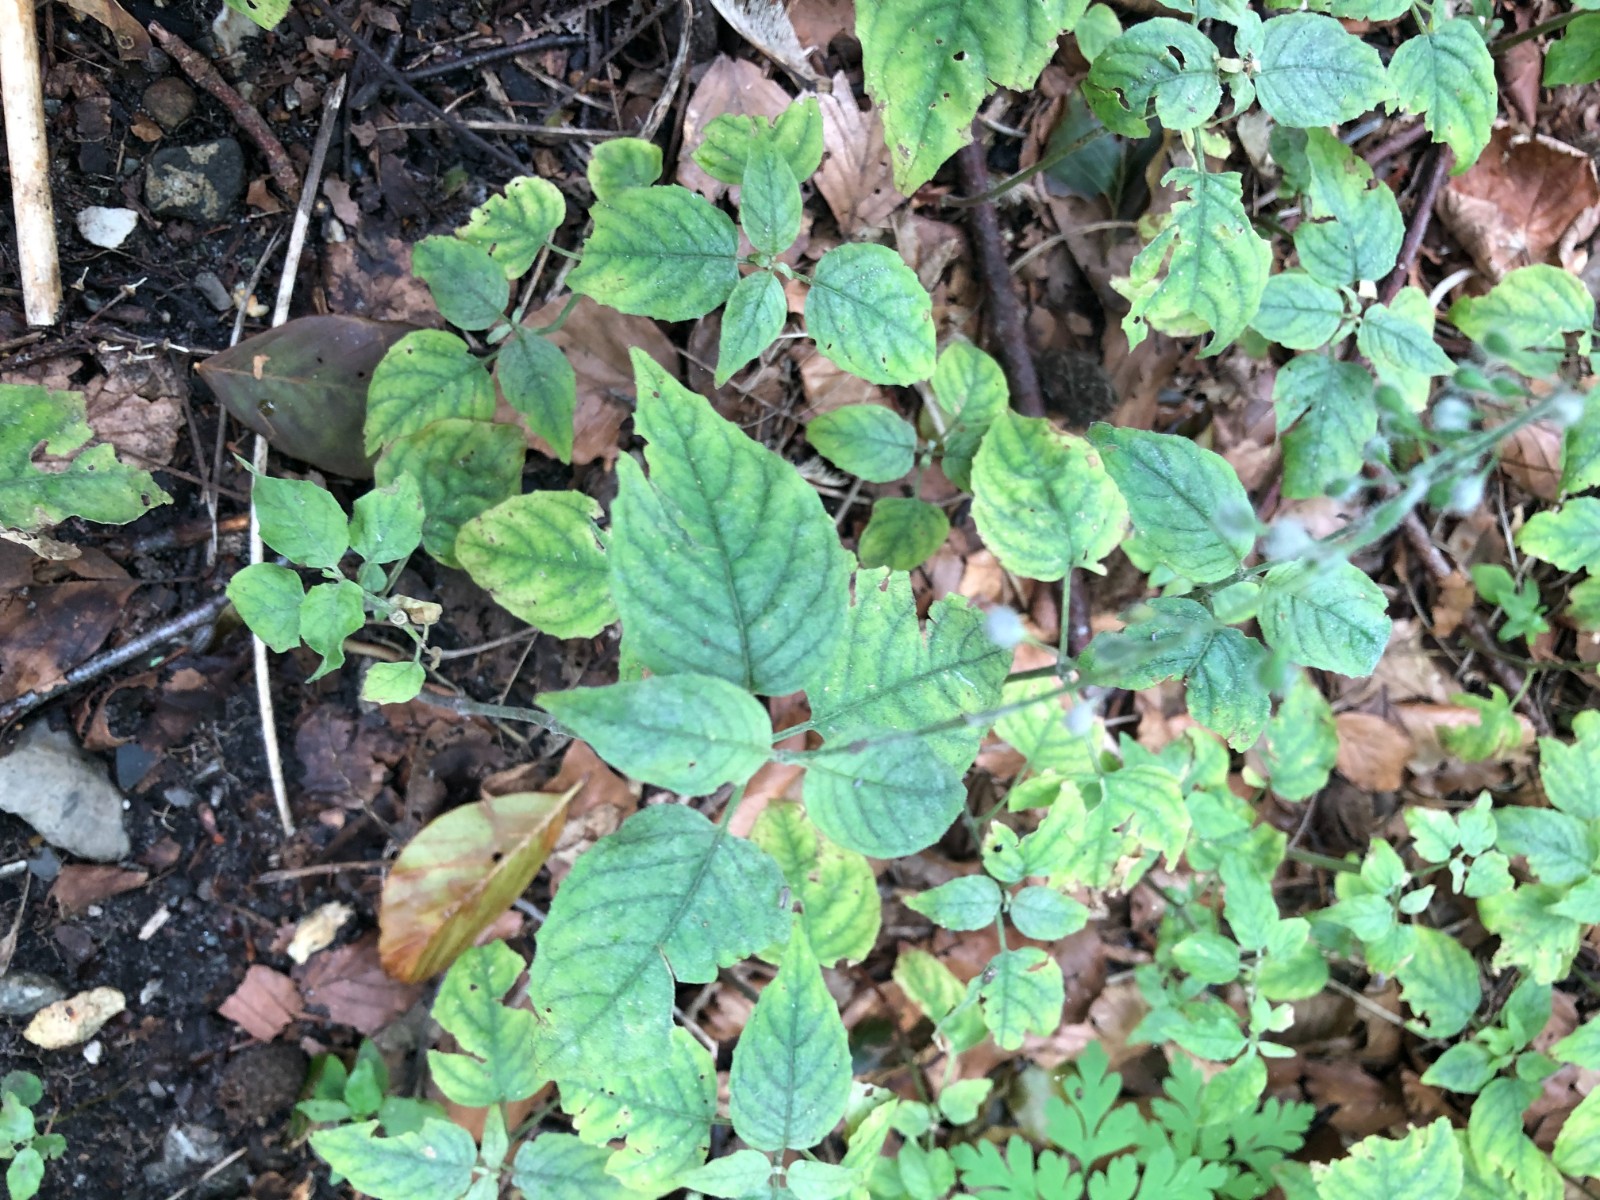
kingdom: Fungi
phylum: Ascomycota
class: Leotiomycetes
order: Helotiales
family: Erysiphaceae
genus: Erysiphe
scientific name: Erysiphe circaeae
